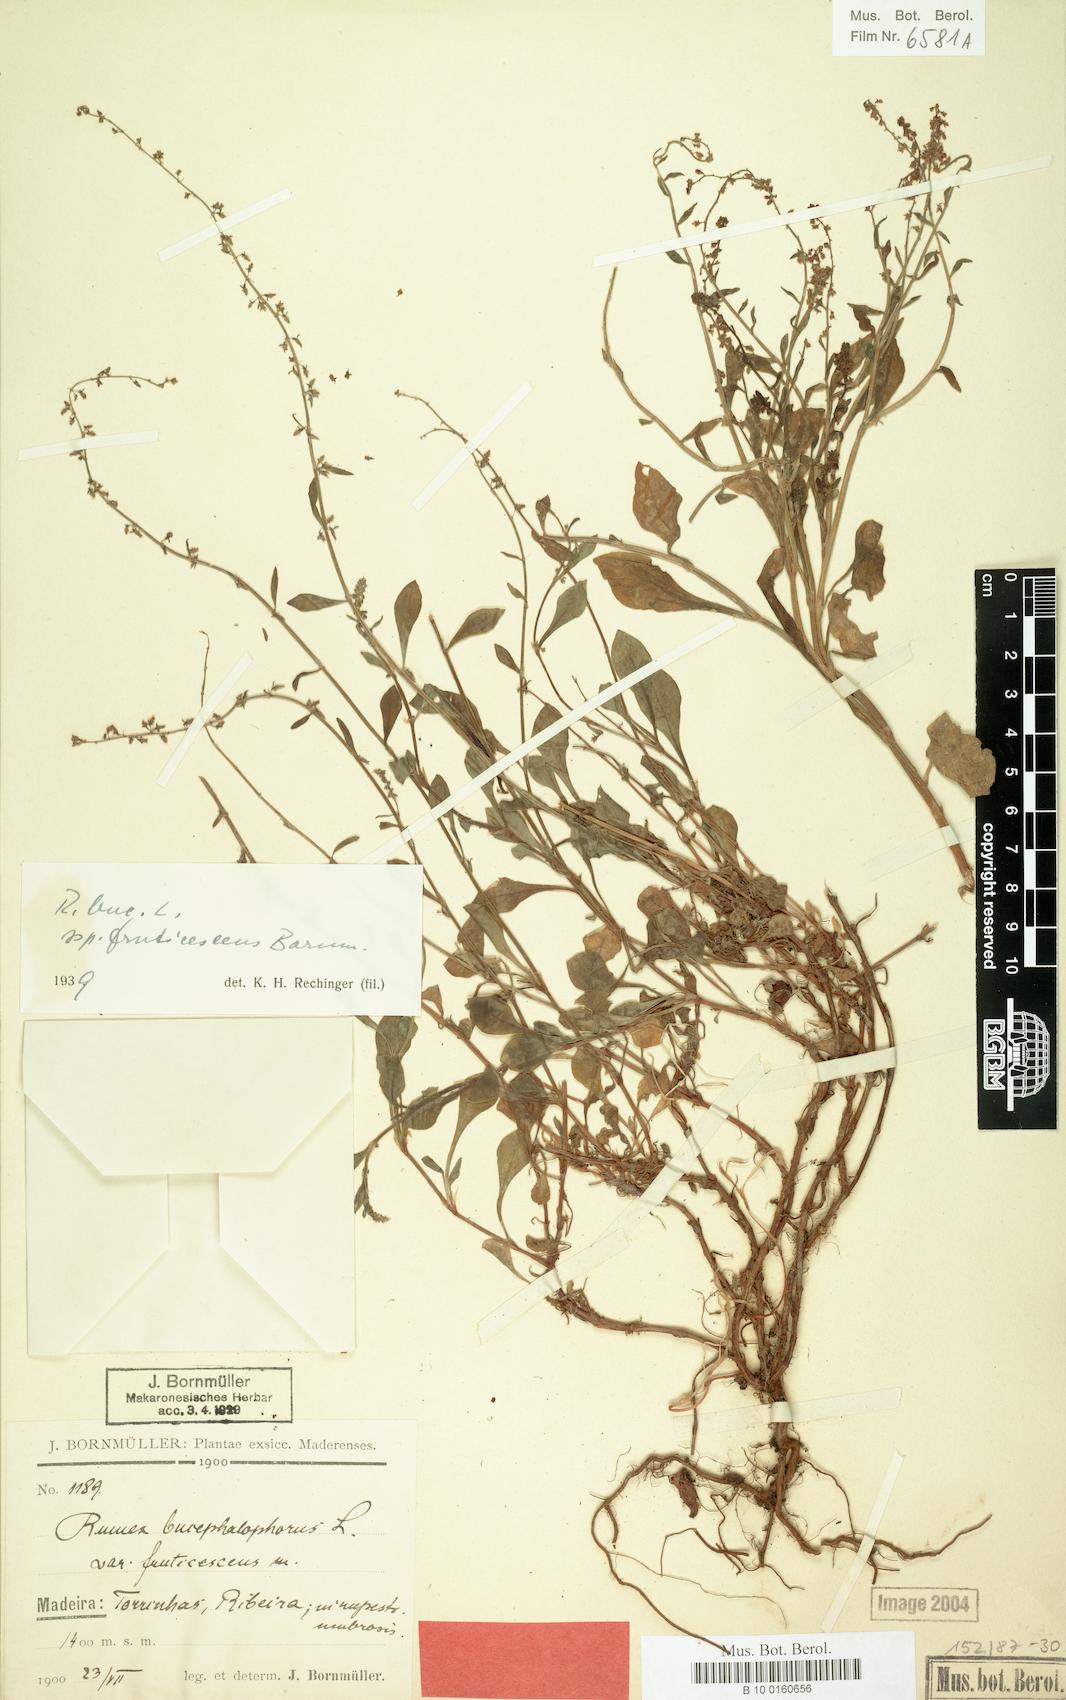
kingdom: Plantae
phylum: Tracheophyta
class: Magnoliopsida
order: Caryophyllales
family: Polygonaceae
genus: Rumex
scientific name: Rumex bucephalophorus
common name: Red dock
